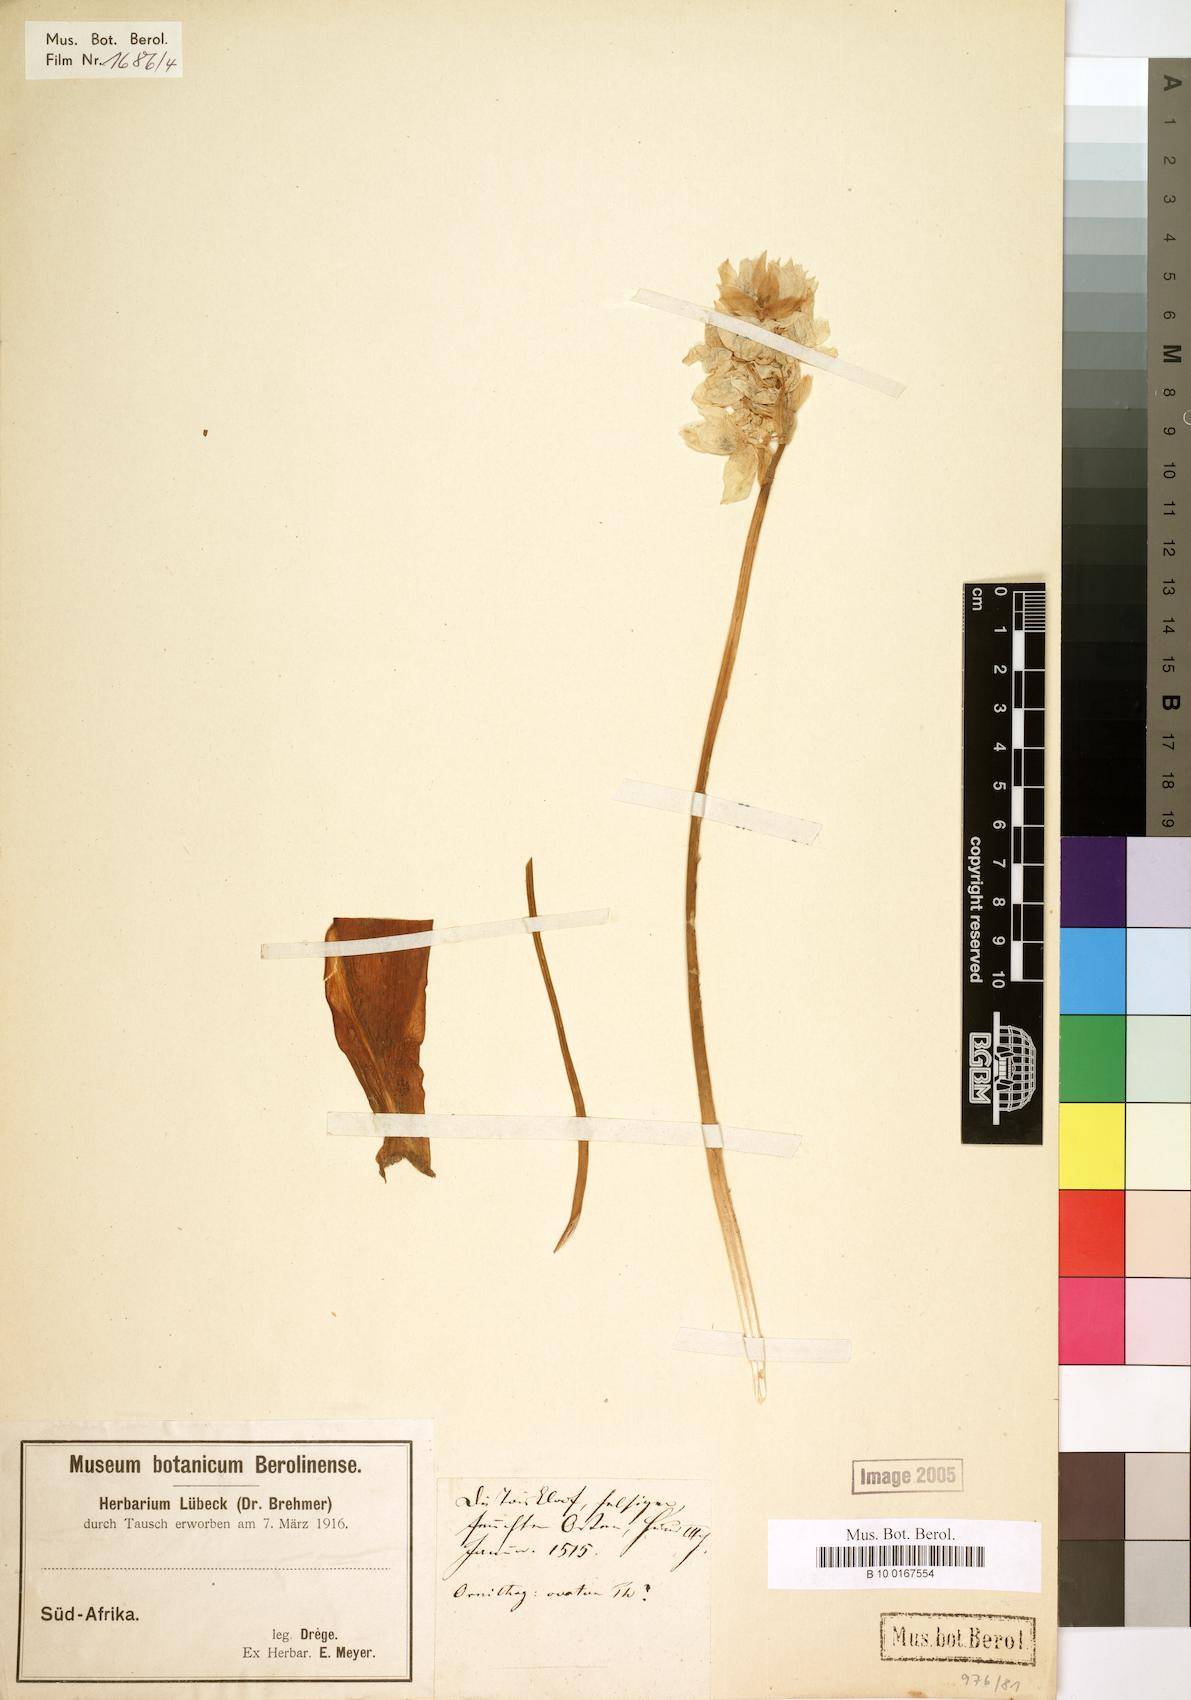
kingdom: Plantae
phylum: Tracheophyta
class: Liliopsida
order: Liliales
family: Liliaceae
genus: Ornithogalum
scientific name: Ornithogalum
